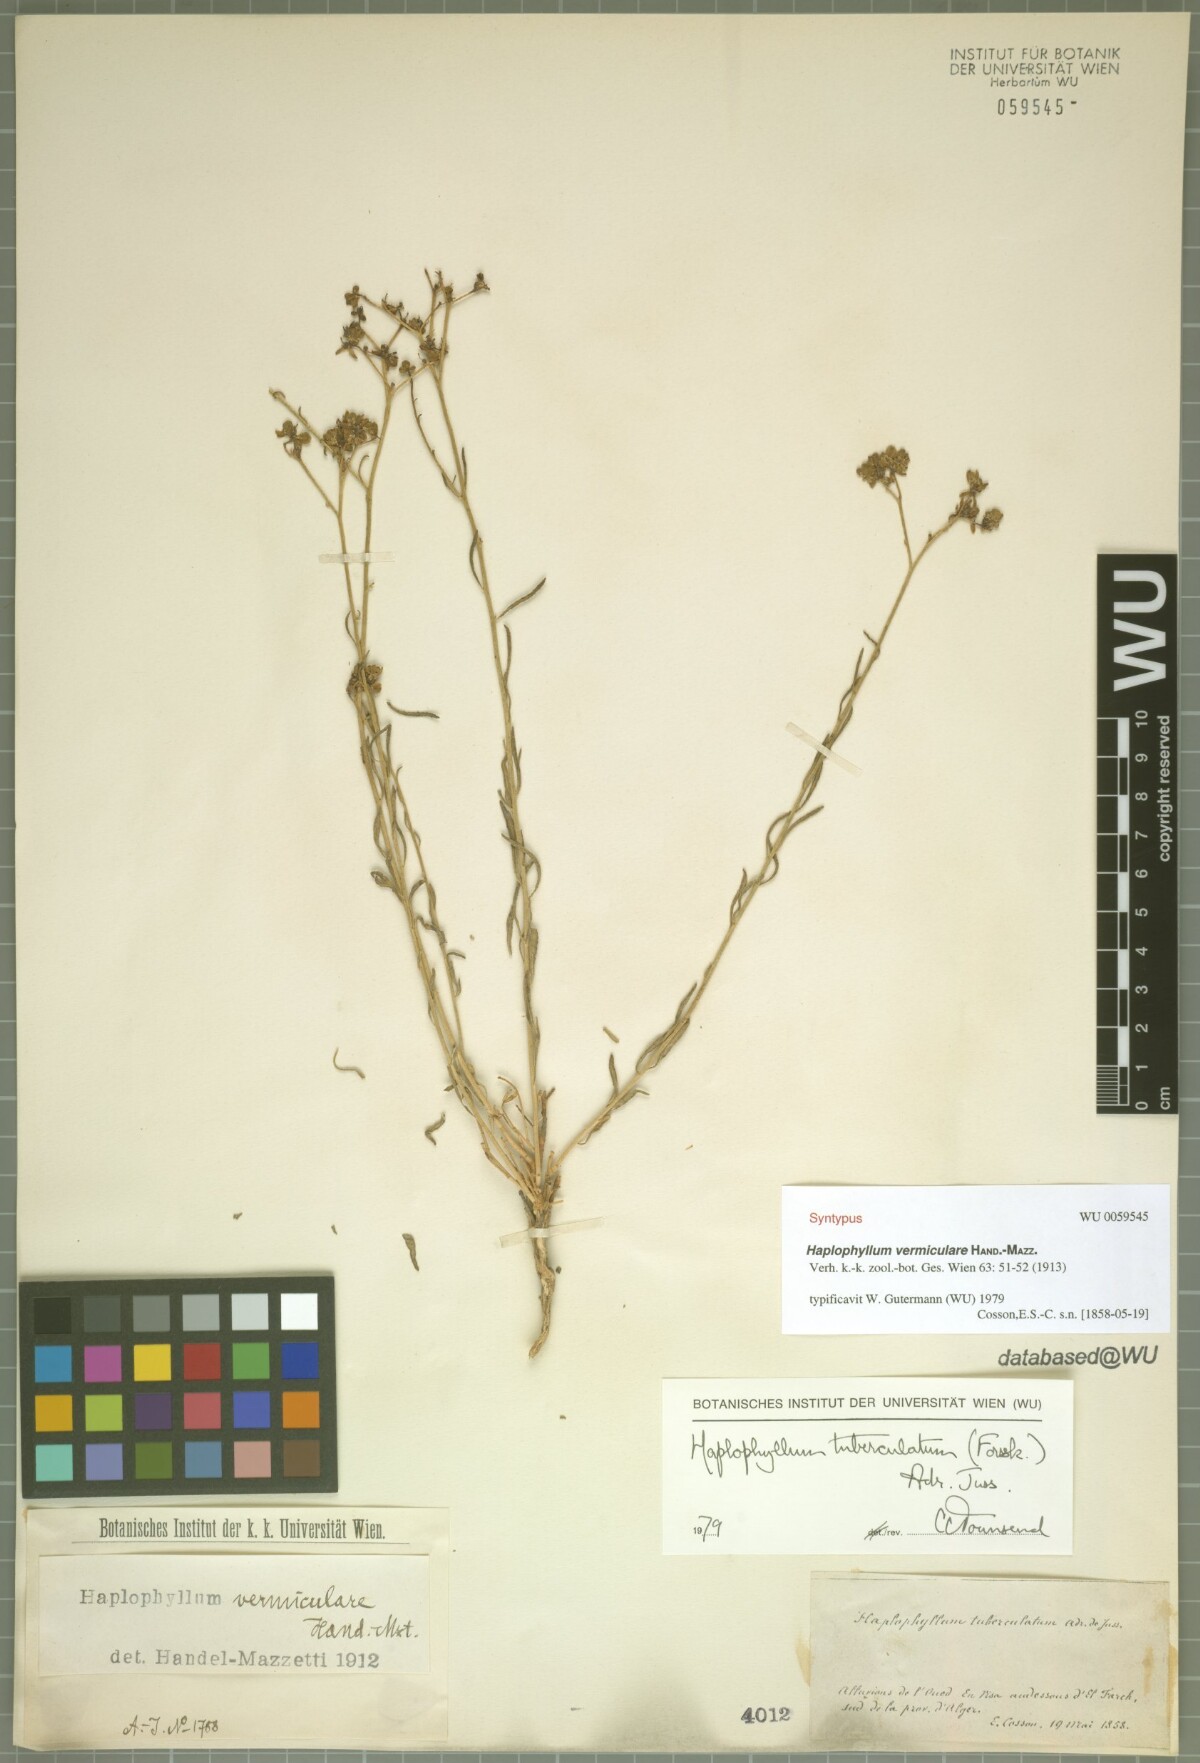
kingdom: Plantae
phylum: Tracheophyta
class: Magnoliopsida
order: Sapindales
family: Rutaceae
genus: Haplophyllum
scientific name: Haplophyllum tuberculatum
